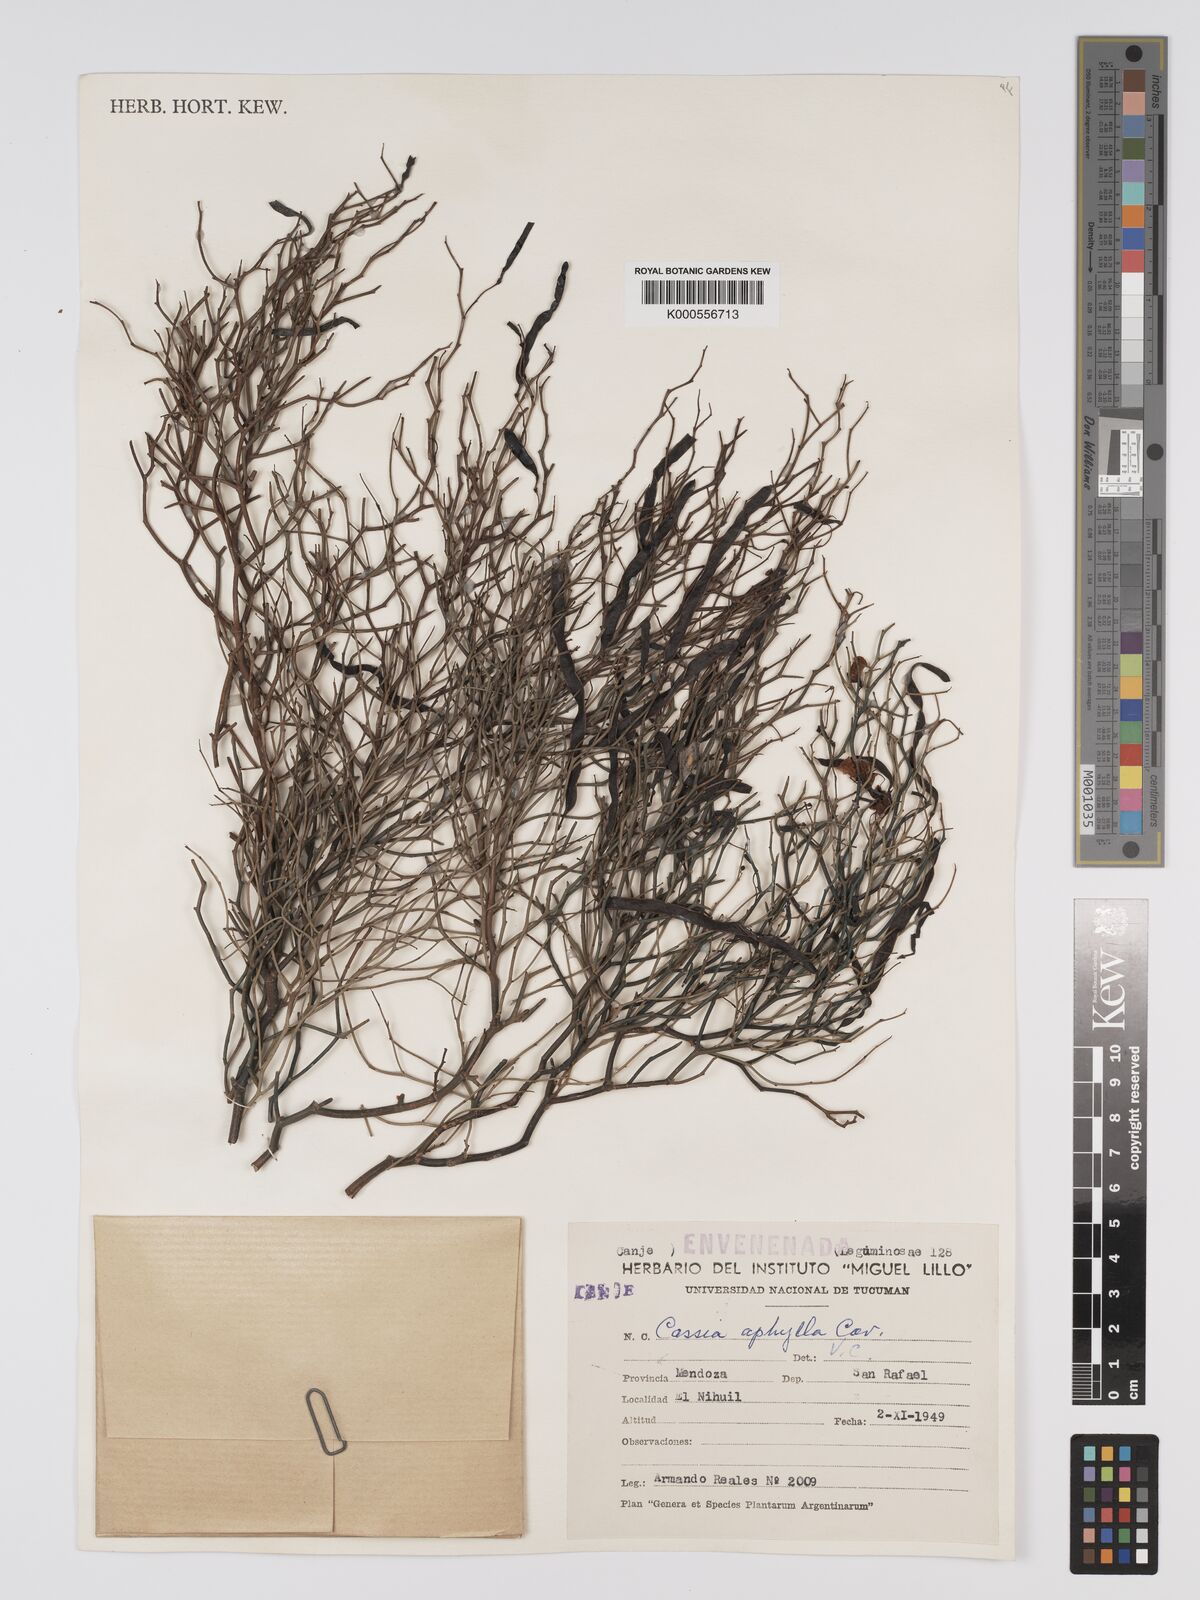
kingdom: Plantae
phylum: Tracheophyta
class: Magnoliopsida
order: Fabales
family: Fabaceae
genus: Senna
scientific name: Senna aphylla
